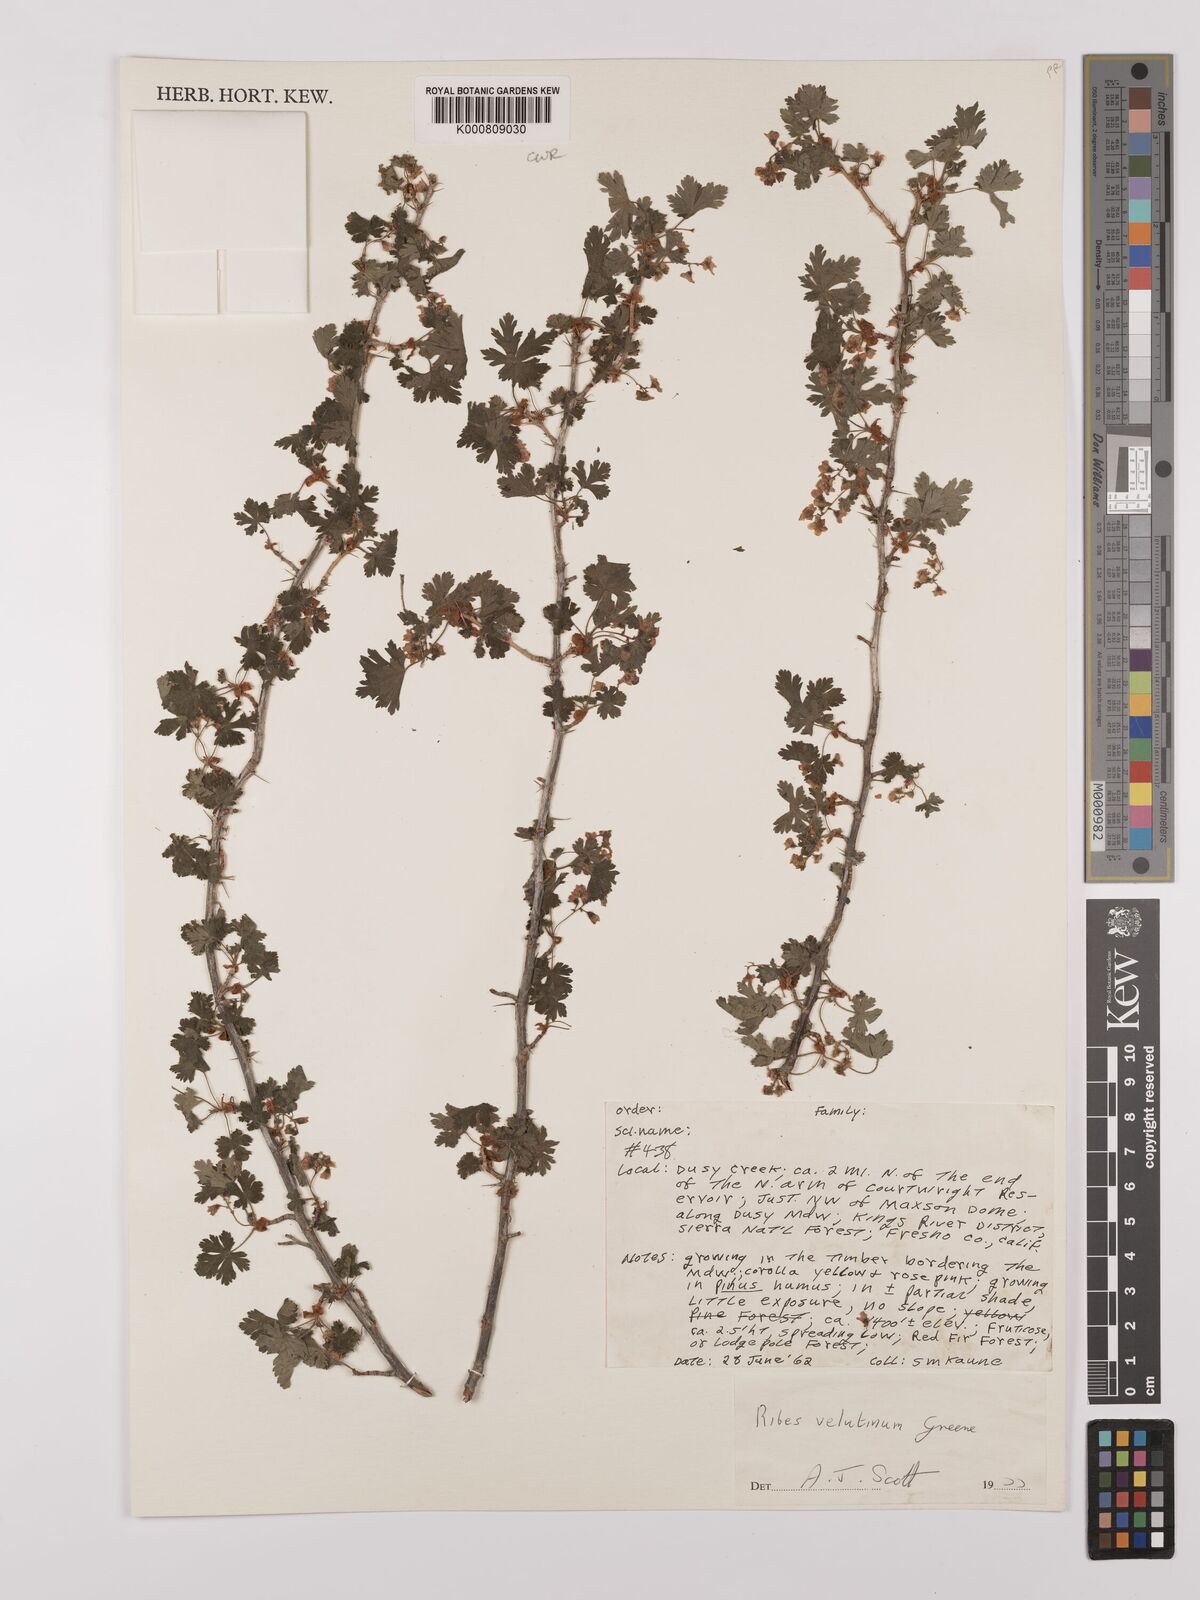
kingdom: Plantae
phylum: Tracheophyta
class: Magnoliopsida
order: Saxifragales
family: Grossulariaceae
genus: Ribes
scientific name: Ribes velutinum
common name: Desert gooseberry
